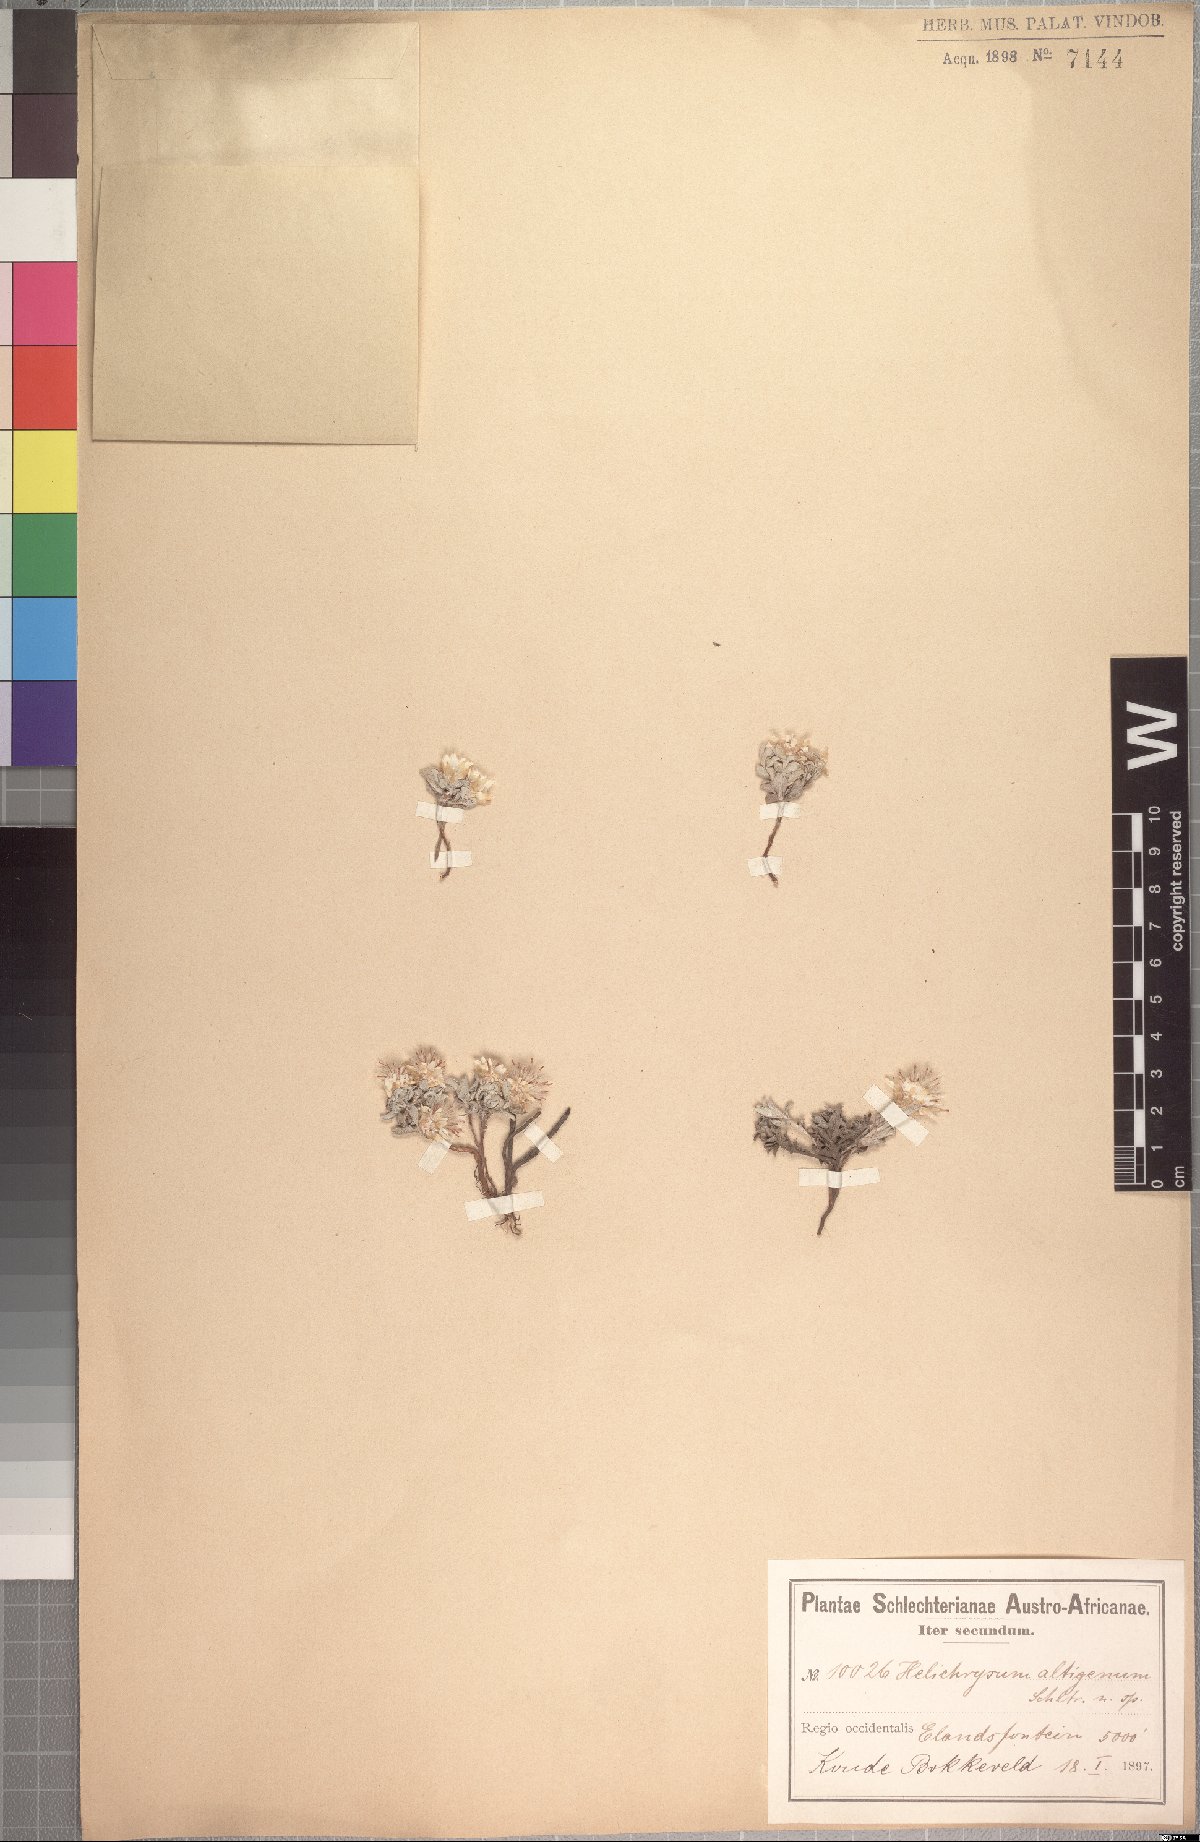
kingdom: Plantae
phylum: Tracheophyta
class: Magnoliopsida
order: Asterales
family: Asteraceae
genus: Helichrysum
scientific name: Helichrysum altigenum
